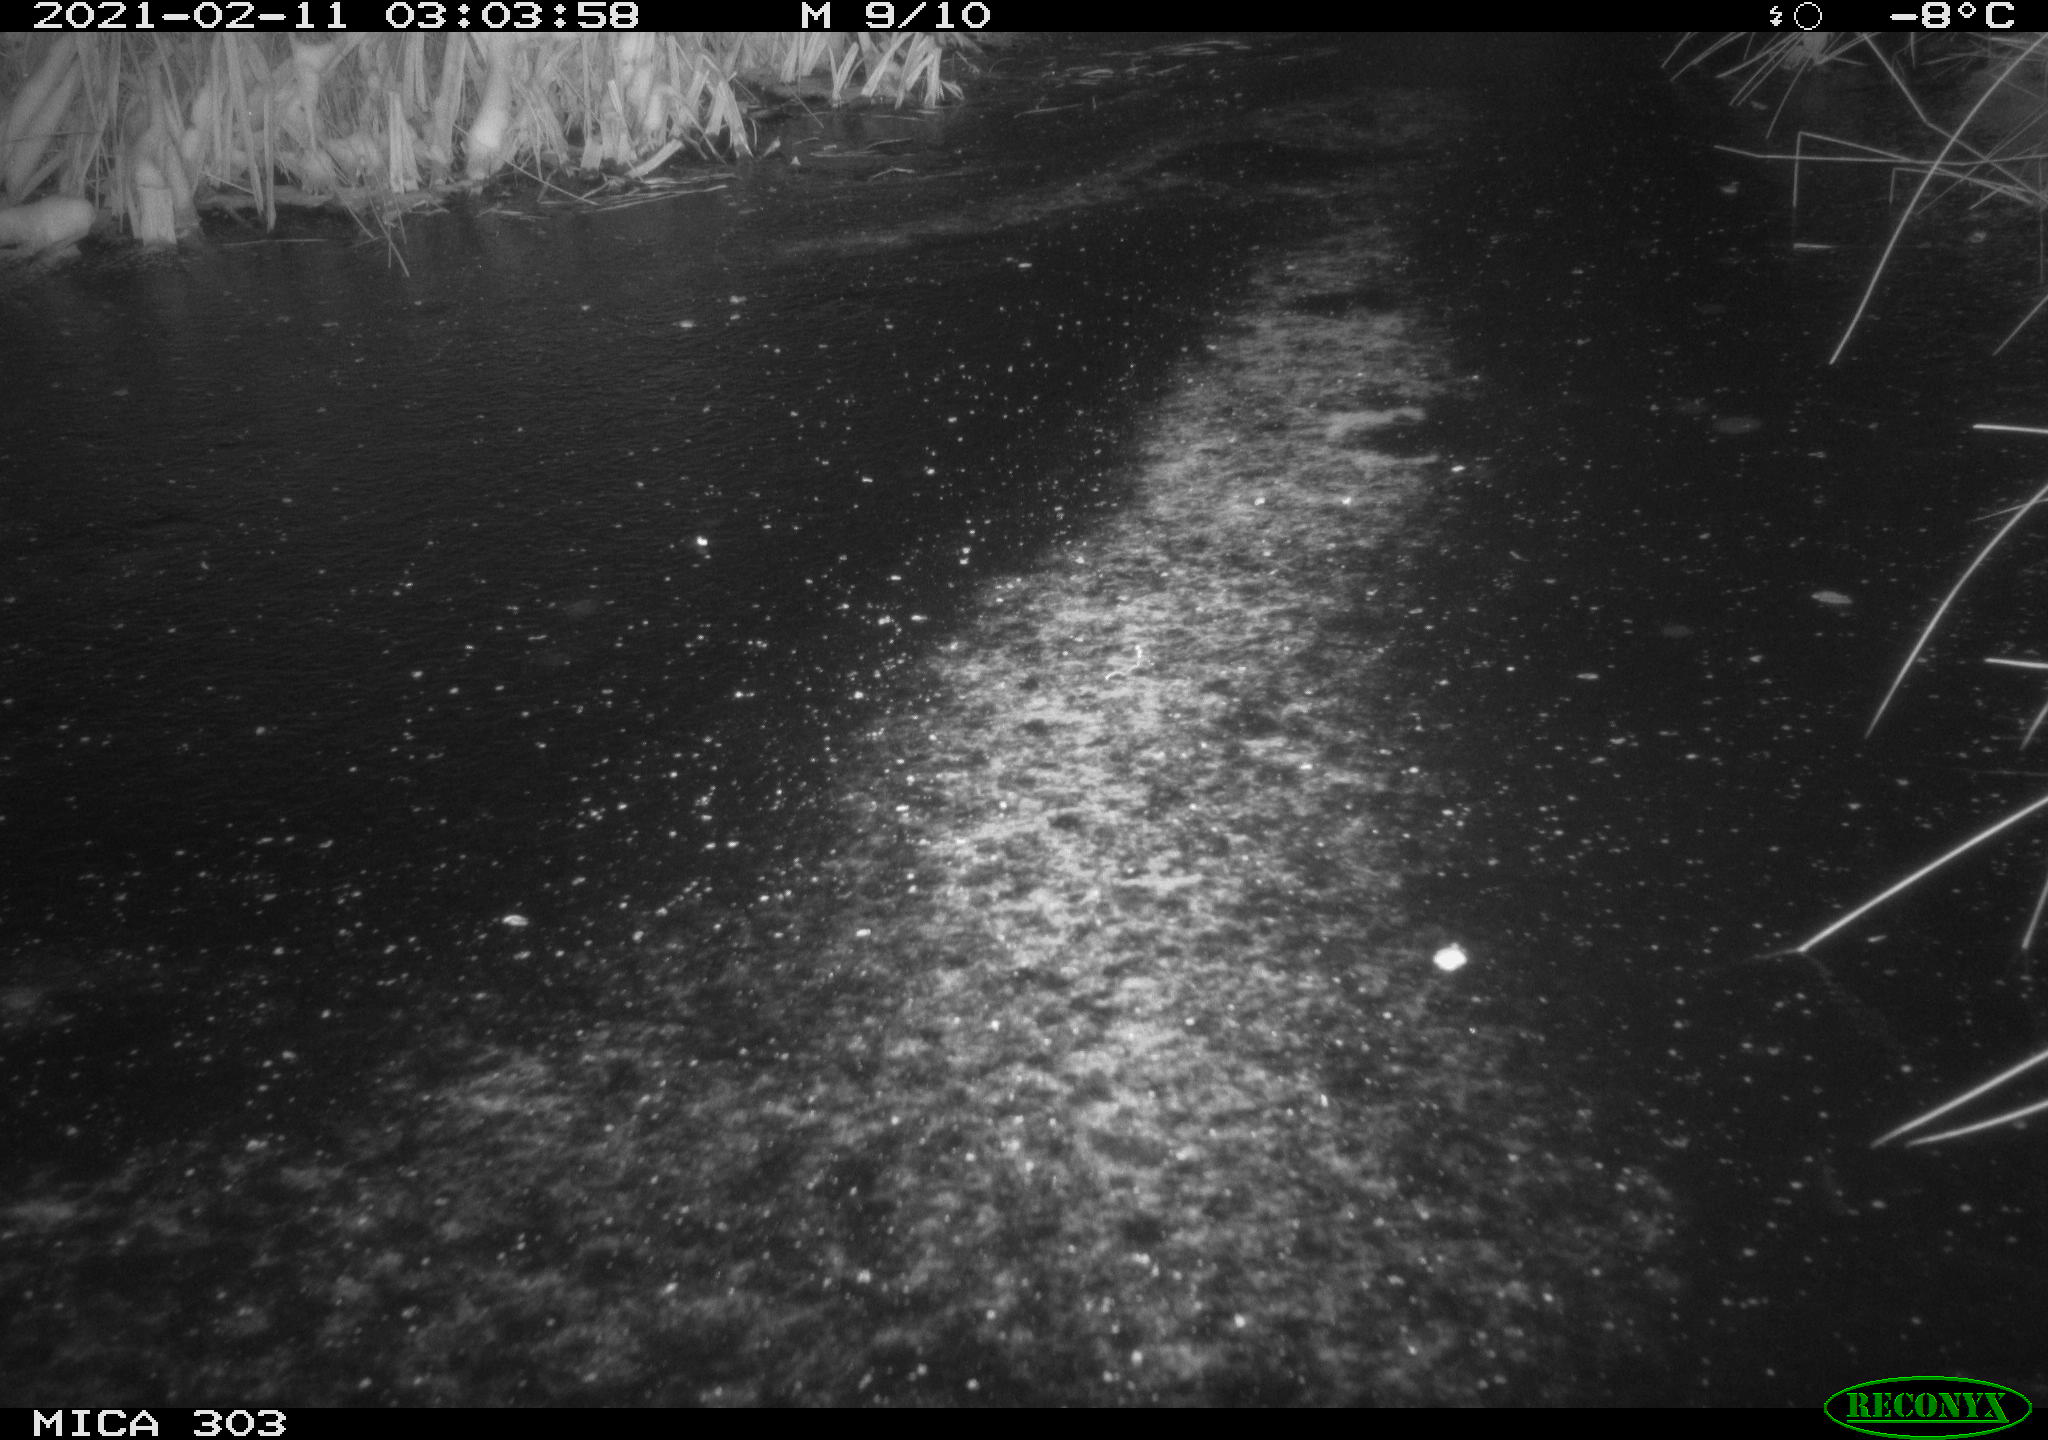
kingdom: Animalia
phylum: Chordata
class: Mammalia
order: Carnivora
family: Canidae
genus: Vulpes
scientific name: Vulpes vulpes
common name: Red fox
